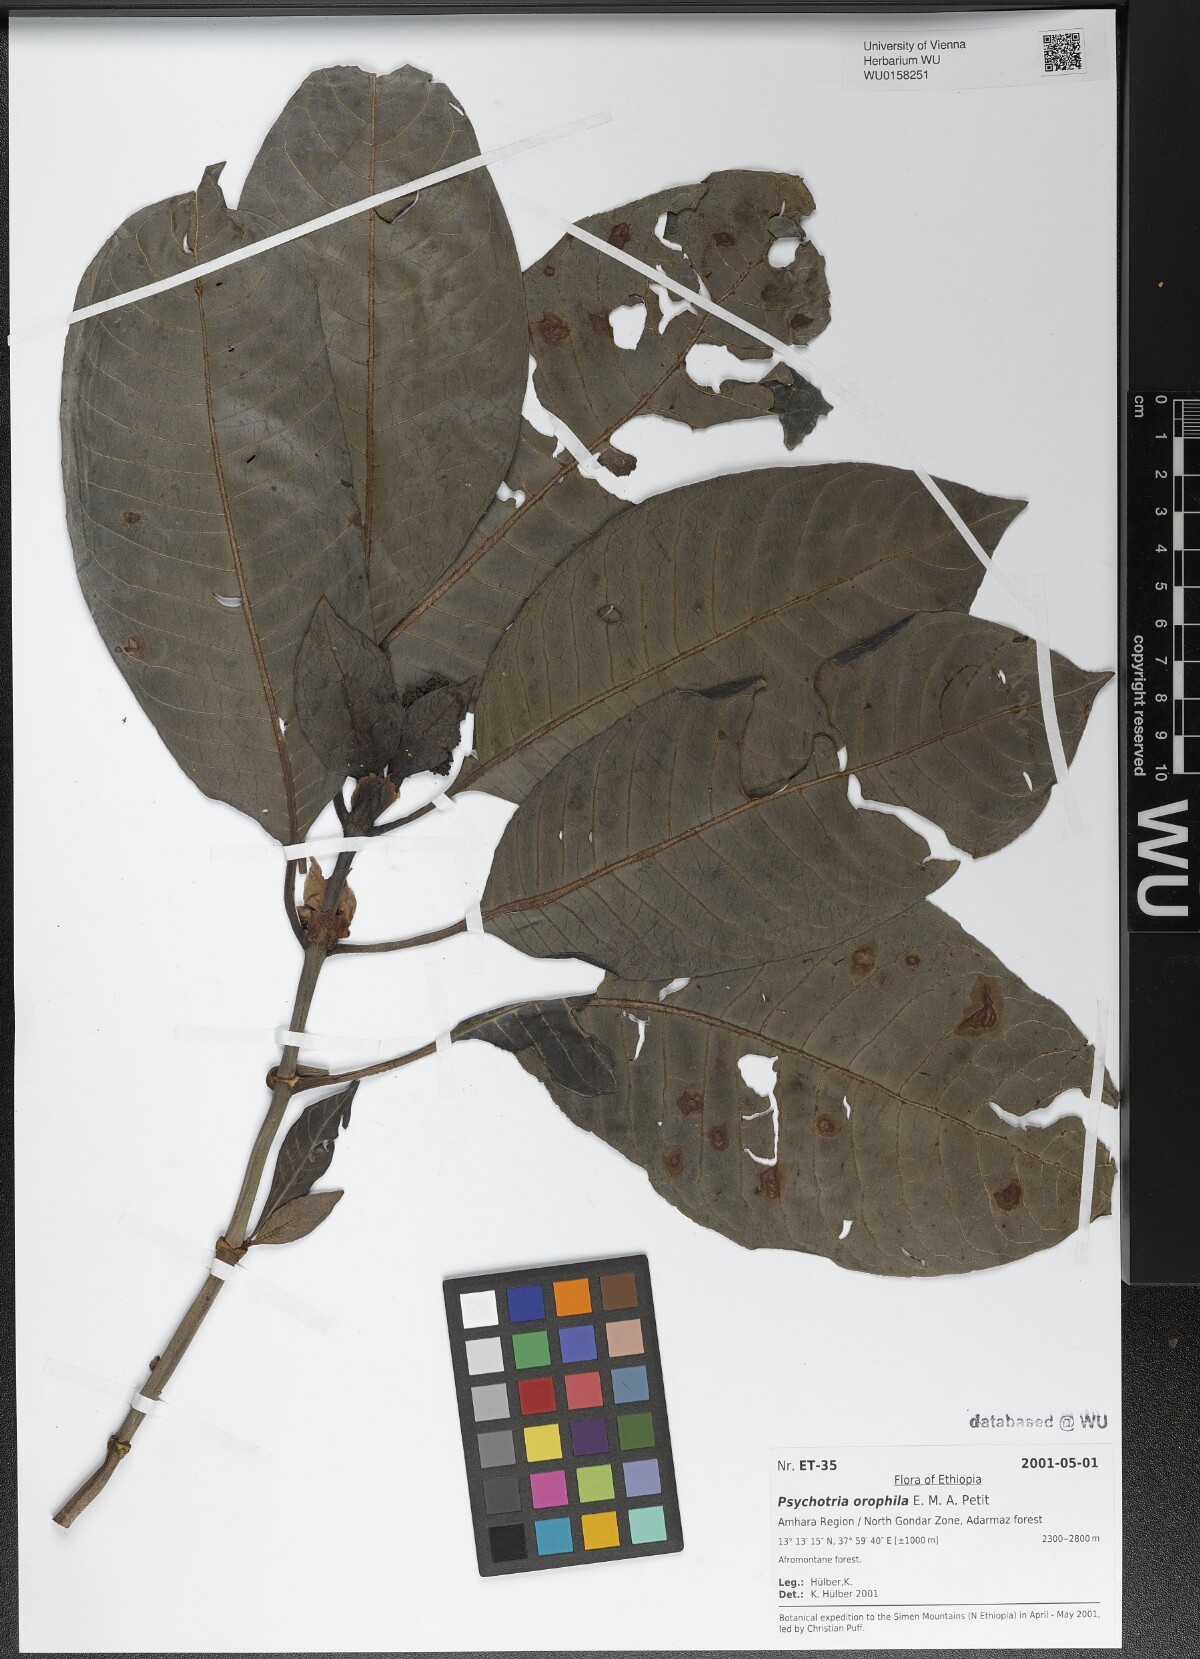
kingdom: Plantae
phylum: Tracheophyta
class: Magnoliopsida
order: Gentianales
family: Rubiaceae
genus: Psychotria
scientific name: Psychotria orophila
